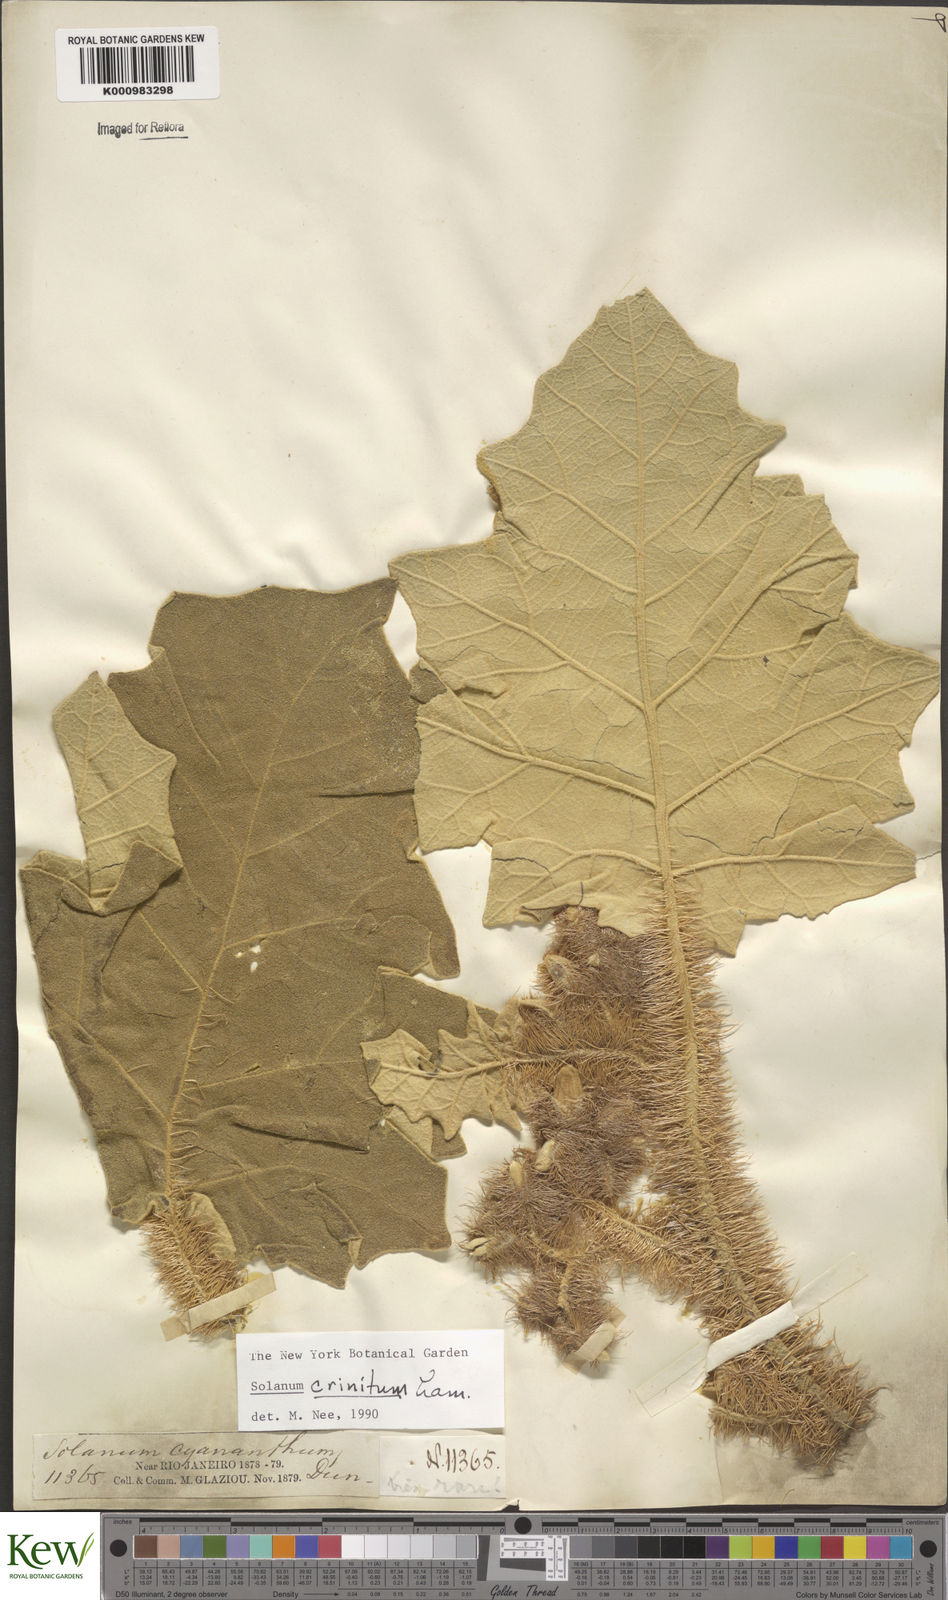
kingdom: Plantae
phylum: Tracheophyta
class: Magnoliopsida
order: Solanales
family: Solanaceae
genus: Solanum
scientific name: Solanum crinitum
